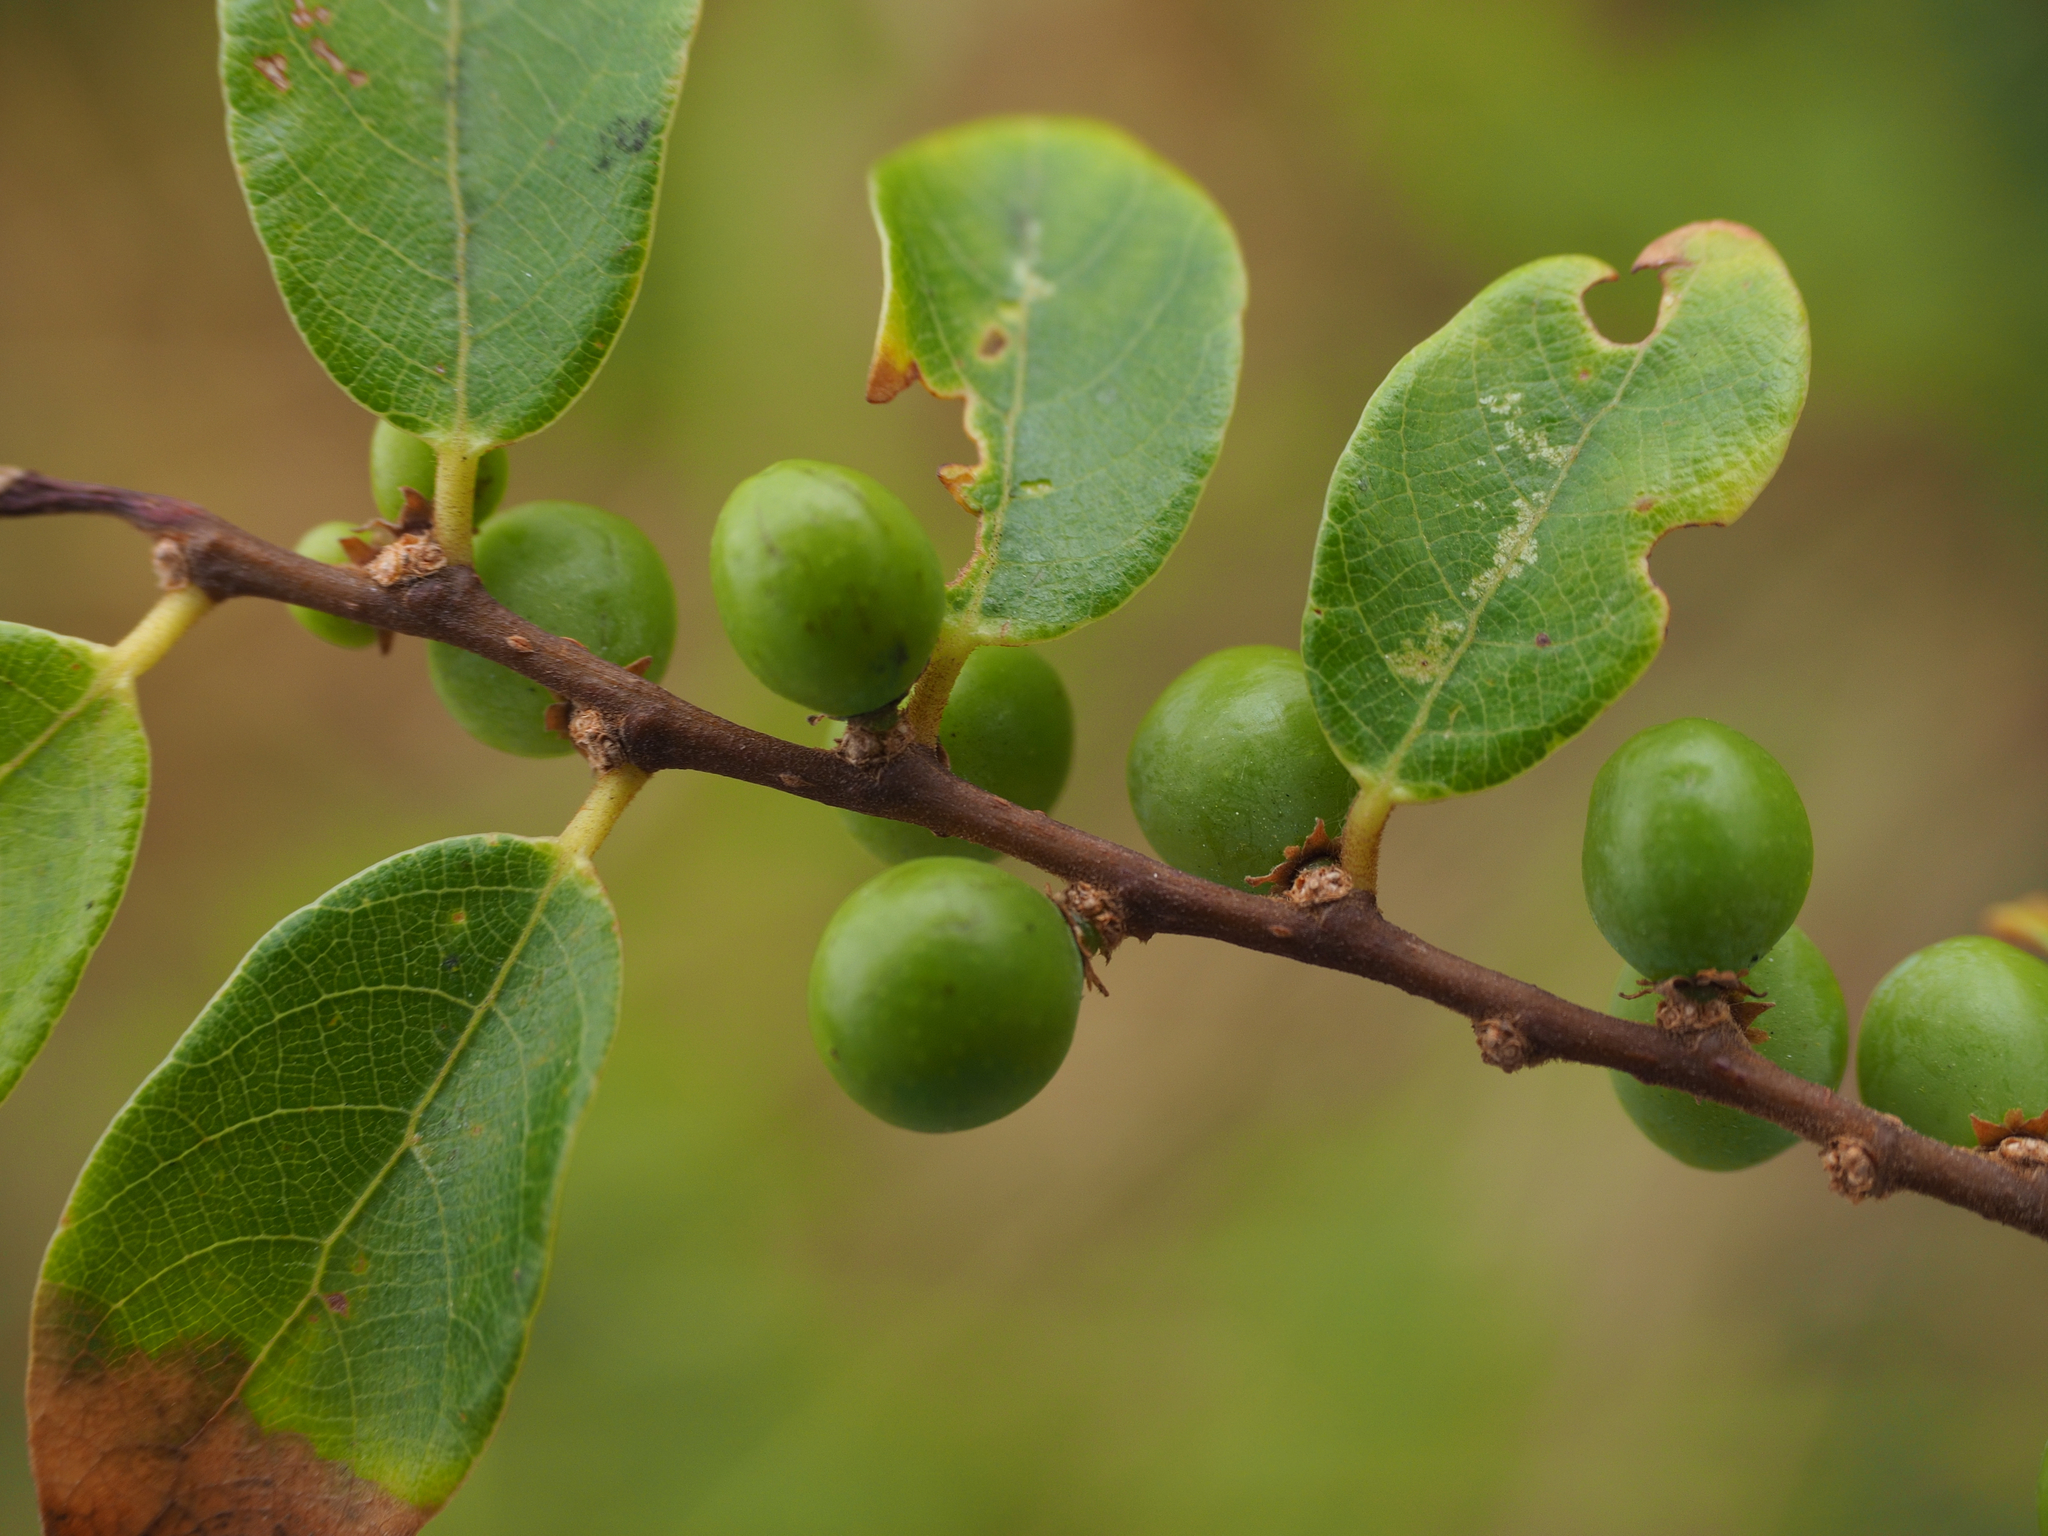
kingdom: Plantae
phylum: Tracheophyta
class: Magnoliopsida
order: Malpighiales
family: Phyllanthaceae
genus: Bridelia
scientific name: Bridelia tomentosa
